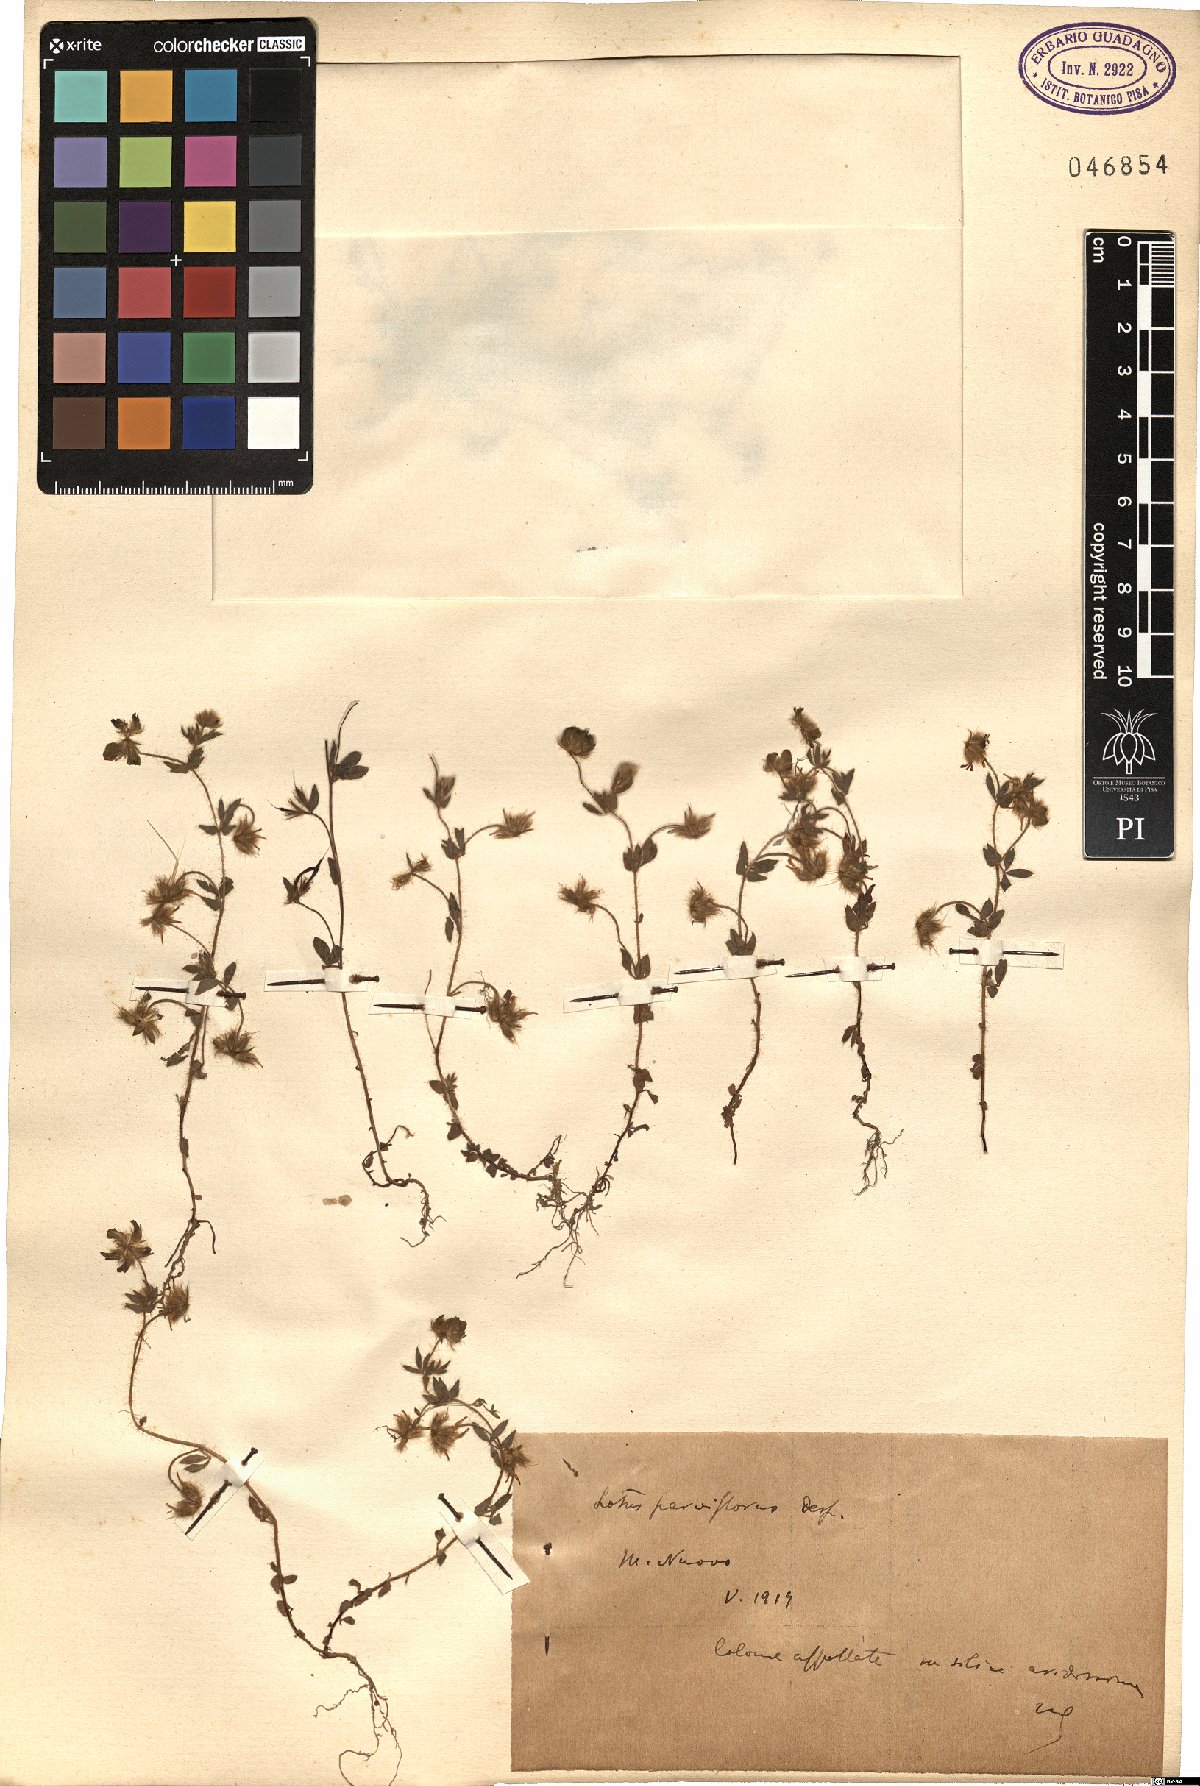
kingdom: Plantae
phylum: Tracheophyta
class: Magnoliopsida
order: Fabales
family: Fabaceae
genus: Lotus
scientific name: Lotus parviflorus
